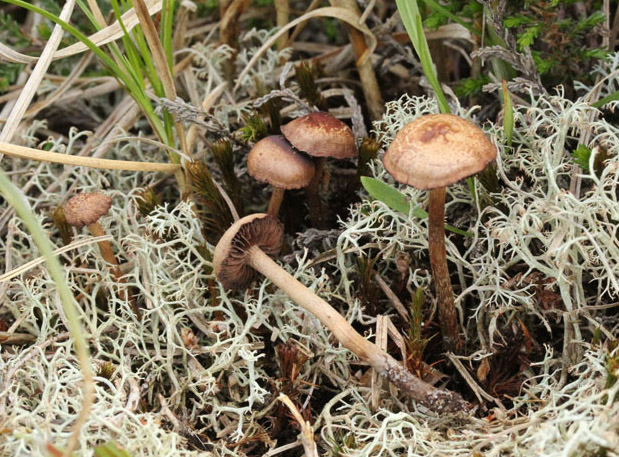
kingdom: Fungi
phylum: Basidiomycota
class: Agaricomycetes
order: Agaricales
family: Strophariaceae
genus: Deconica
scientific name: Deconica
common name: stråhat
